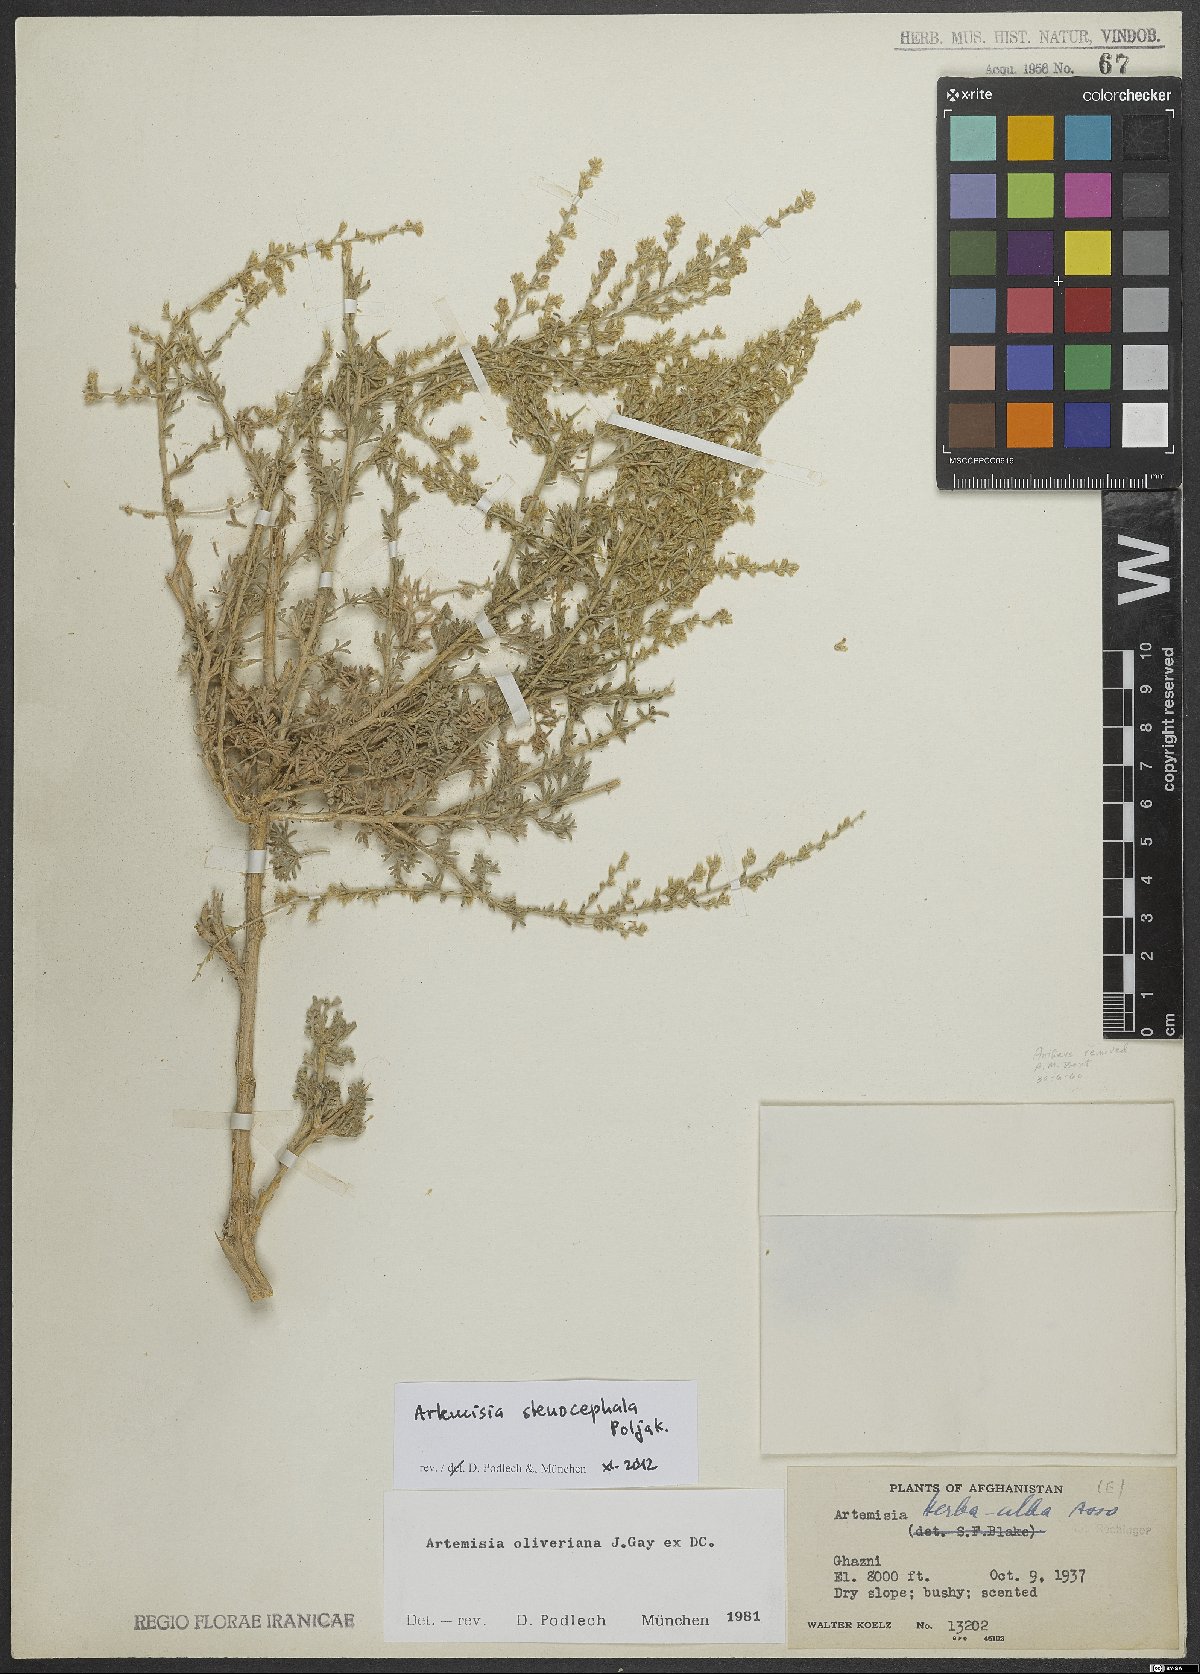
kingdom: Plantae
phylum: Tracheophyta
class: Magnoliopsida
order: Asterales
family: Asteraceae
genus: Artemisia
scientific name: Artemisia stenocephala
